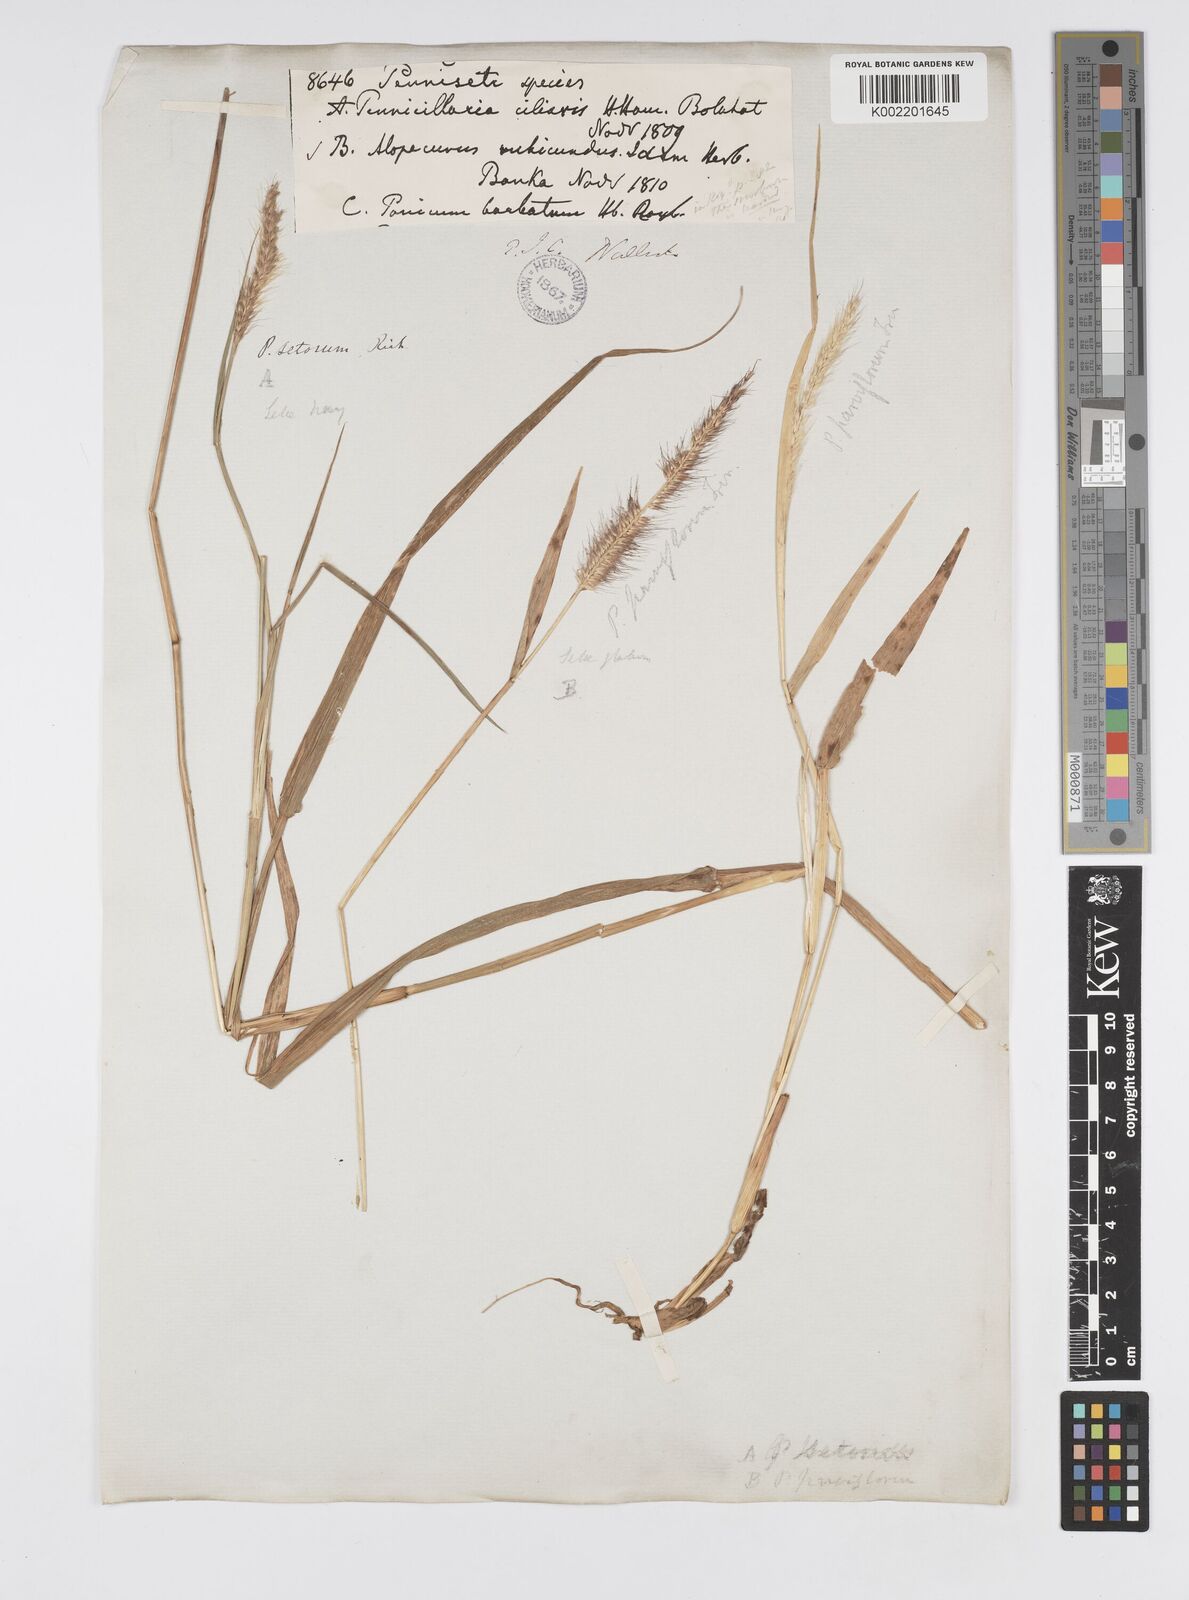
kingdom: Plantae
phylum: Tracheophyta
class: Liliopsida
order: Poales
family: Poaceae
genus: Setaria
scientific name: Setaria parviflora
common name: Knotroot bristle-grass
